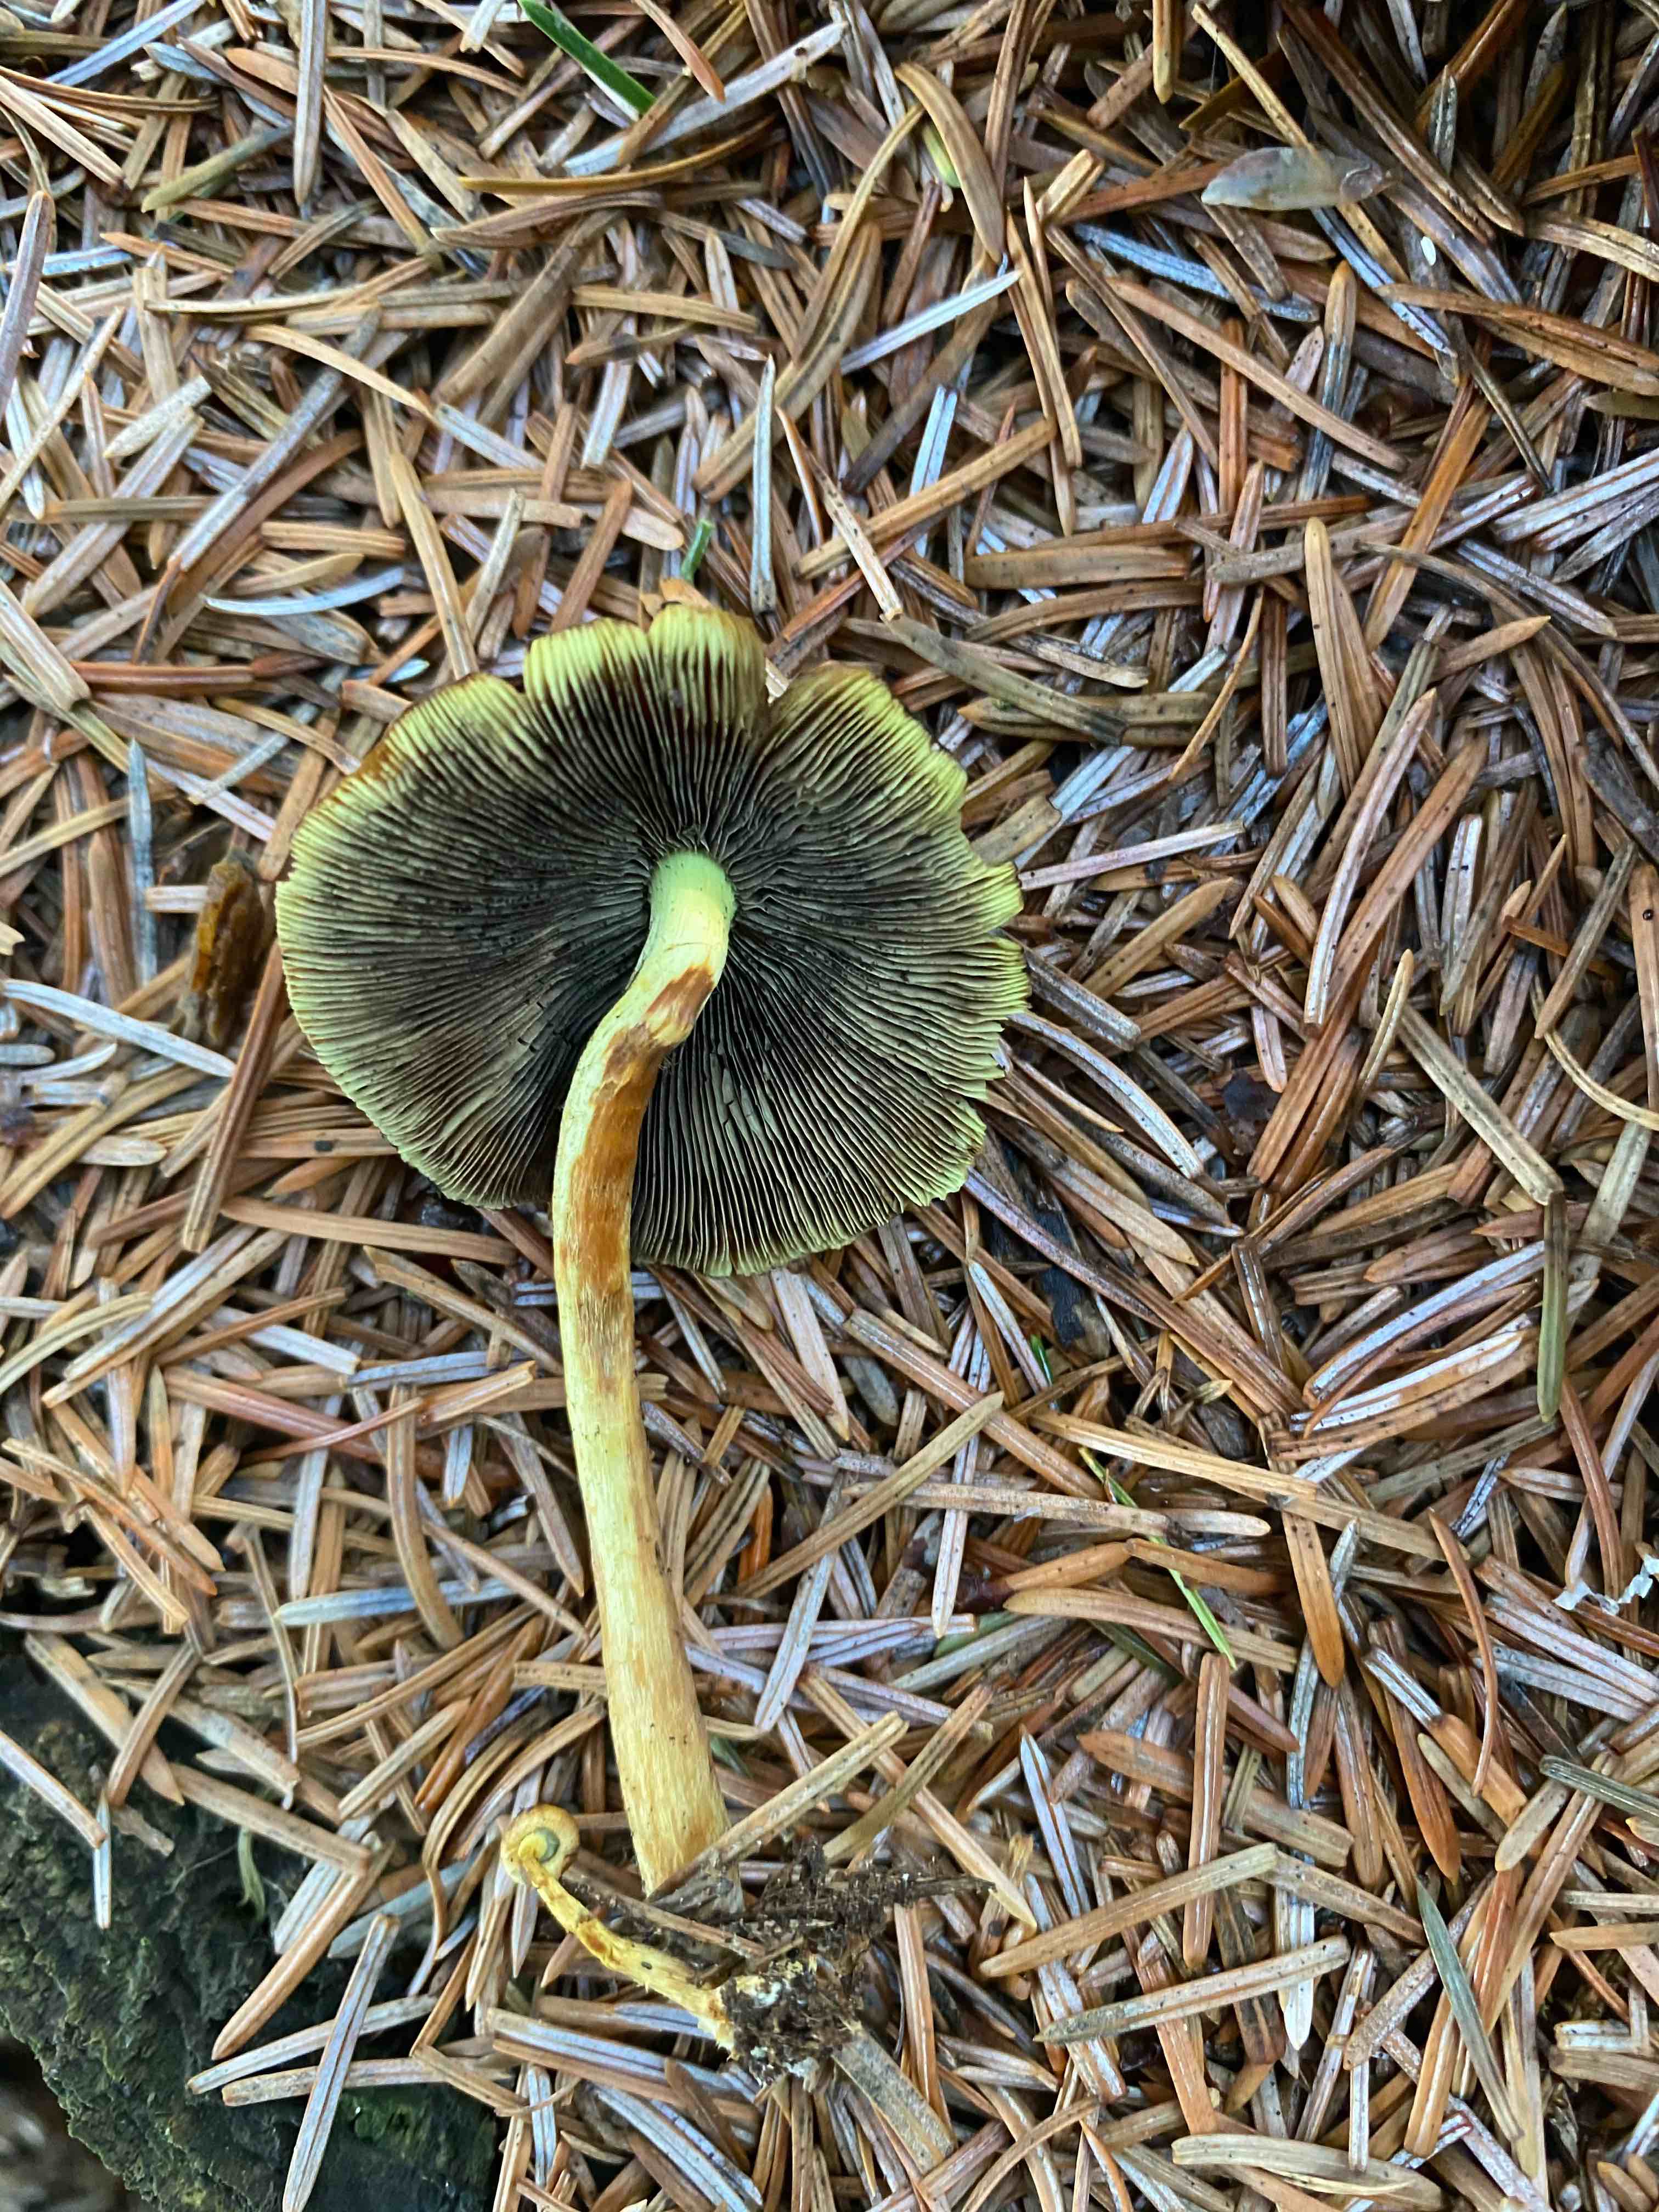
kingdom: Fungi
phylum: Basidiomycota
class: Agaricomycetes
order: Agaricales
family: Strophariaceae
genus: Hypholoma
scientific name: Hypholoma fasciculare
